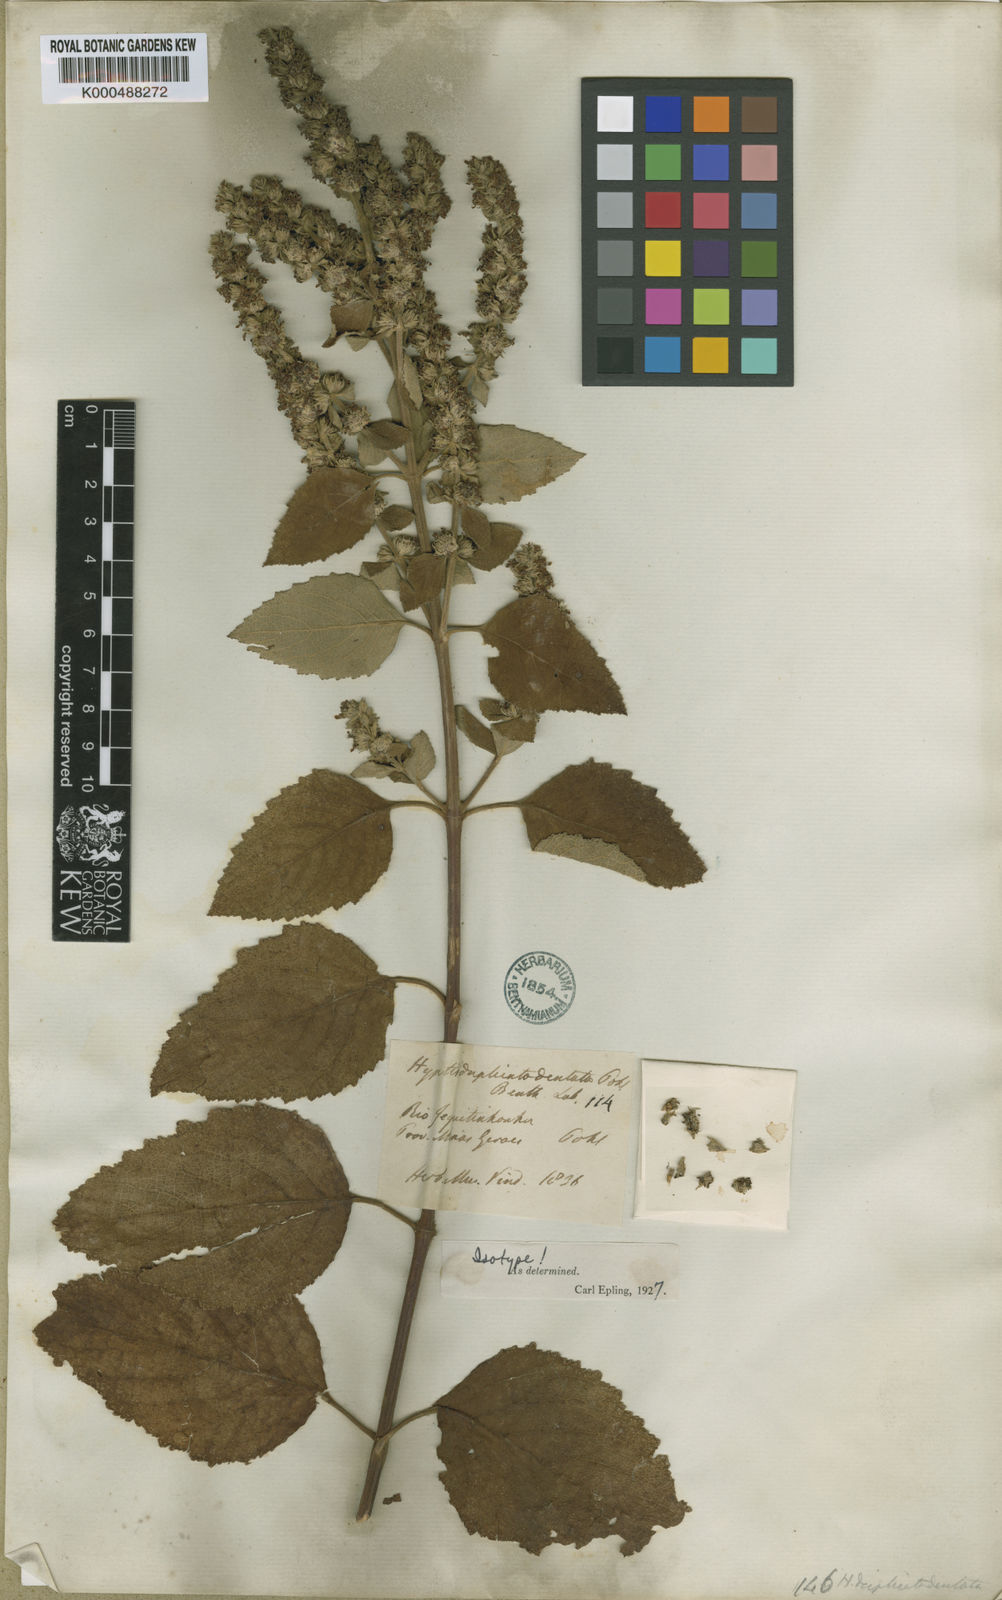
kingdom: Plantae
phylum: Tracheophyta
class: Magnoliopsida
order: Lamiales
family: Lamiaceae
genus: Cantinoa
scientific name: Cantinoa duplicatodentata
